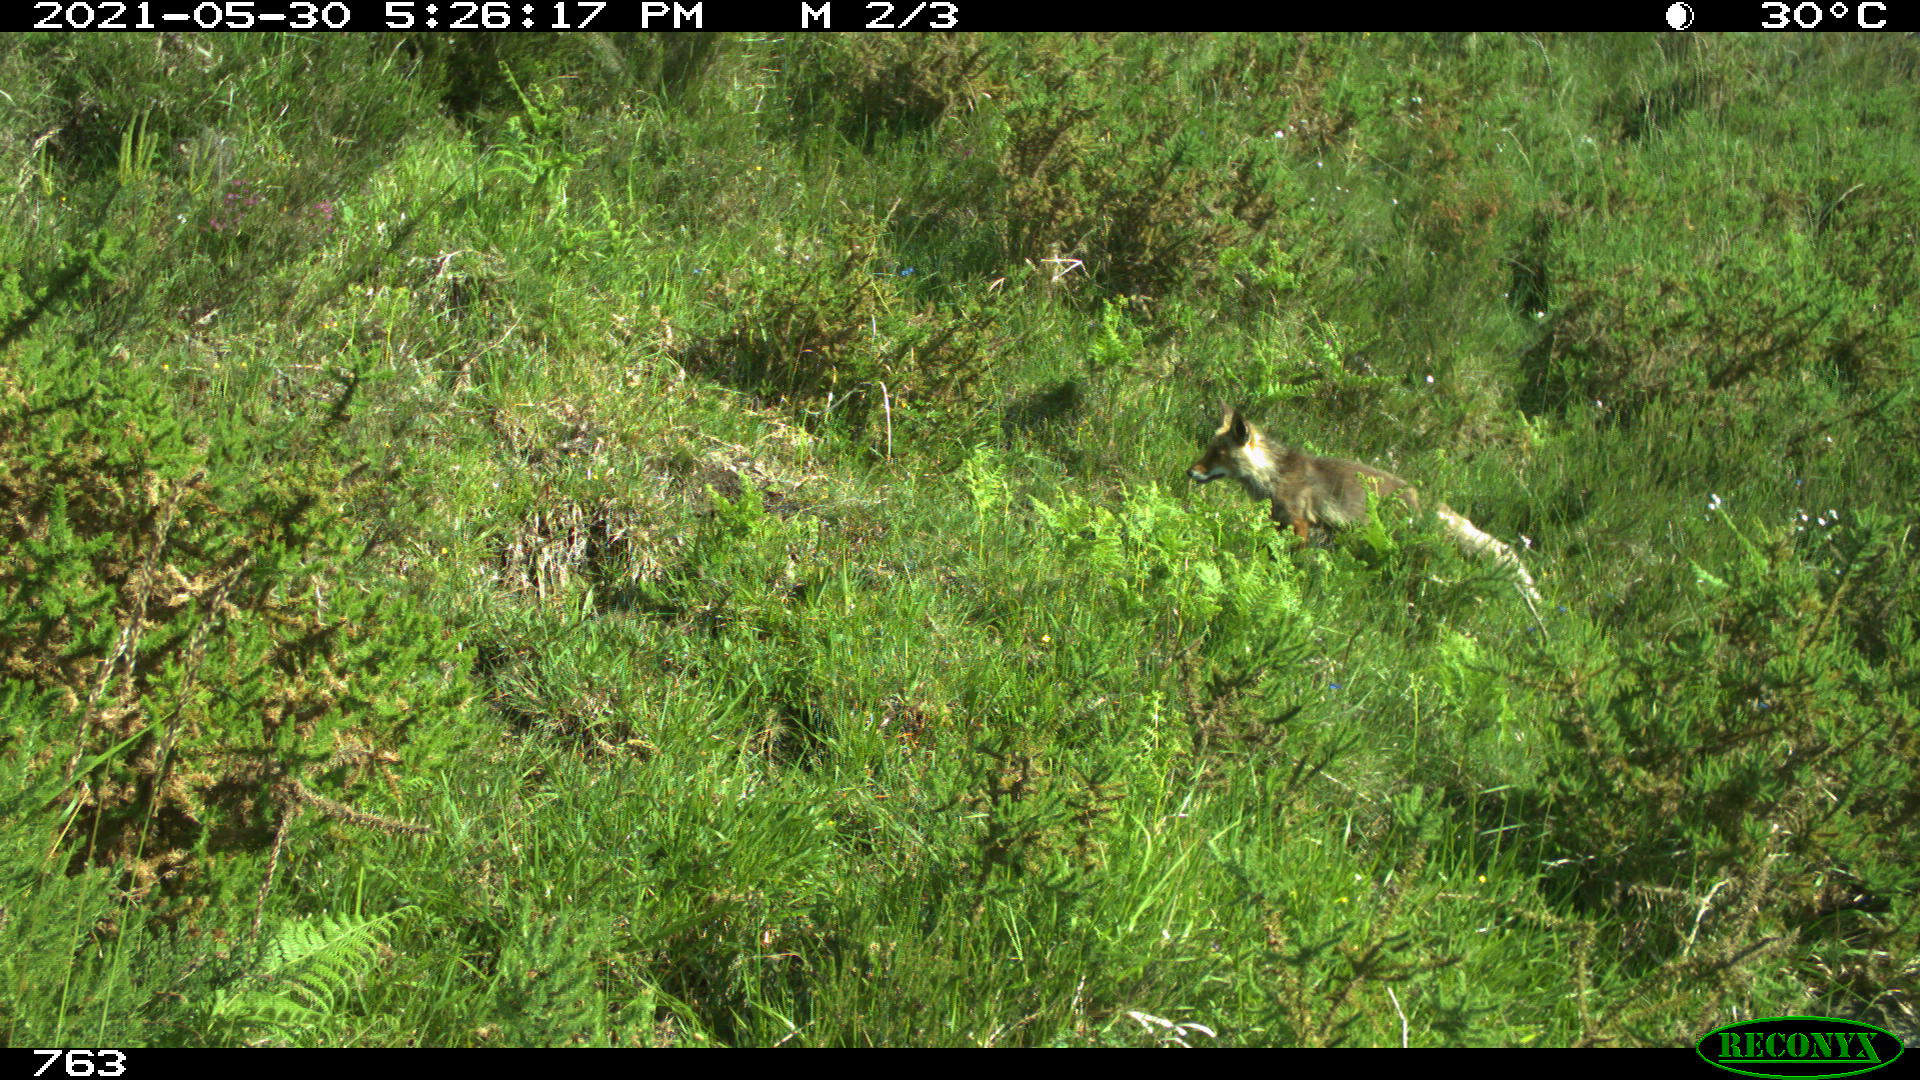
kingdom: Animalia
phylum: Chordata
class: Mammalia
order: Carnivora
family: Canidae
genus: Vulpes
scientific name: Vulpes vulpes
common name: Red fox
